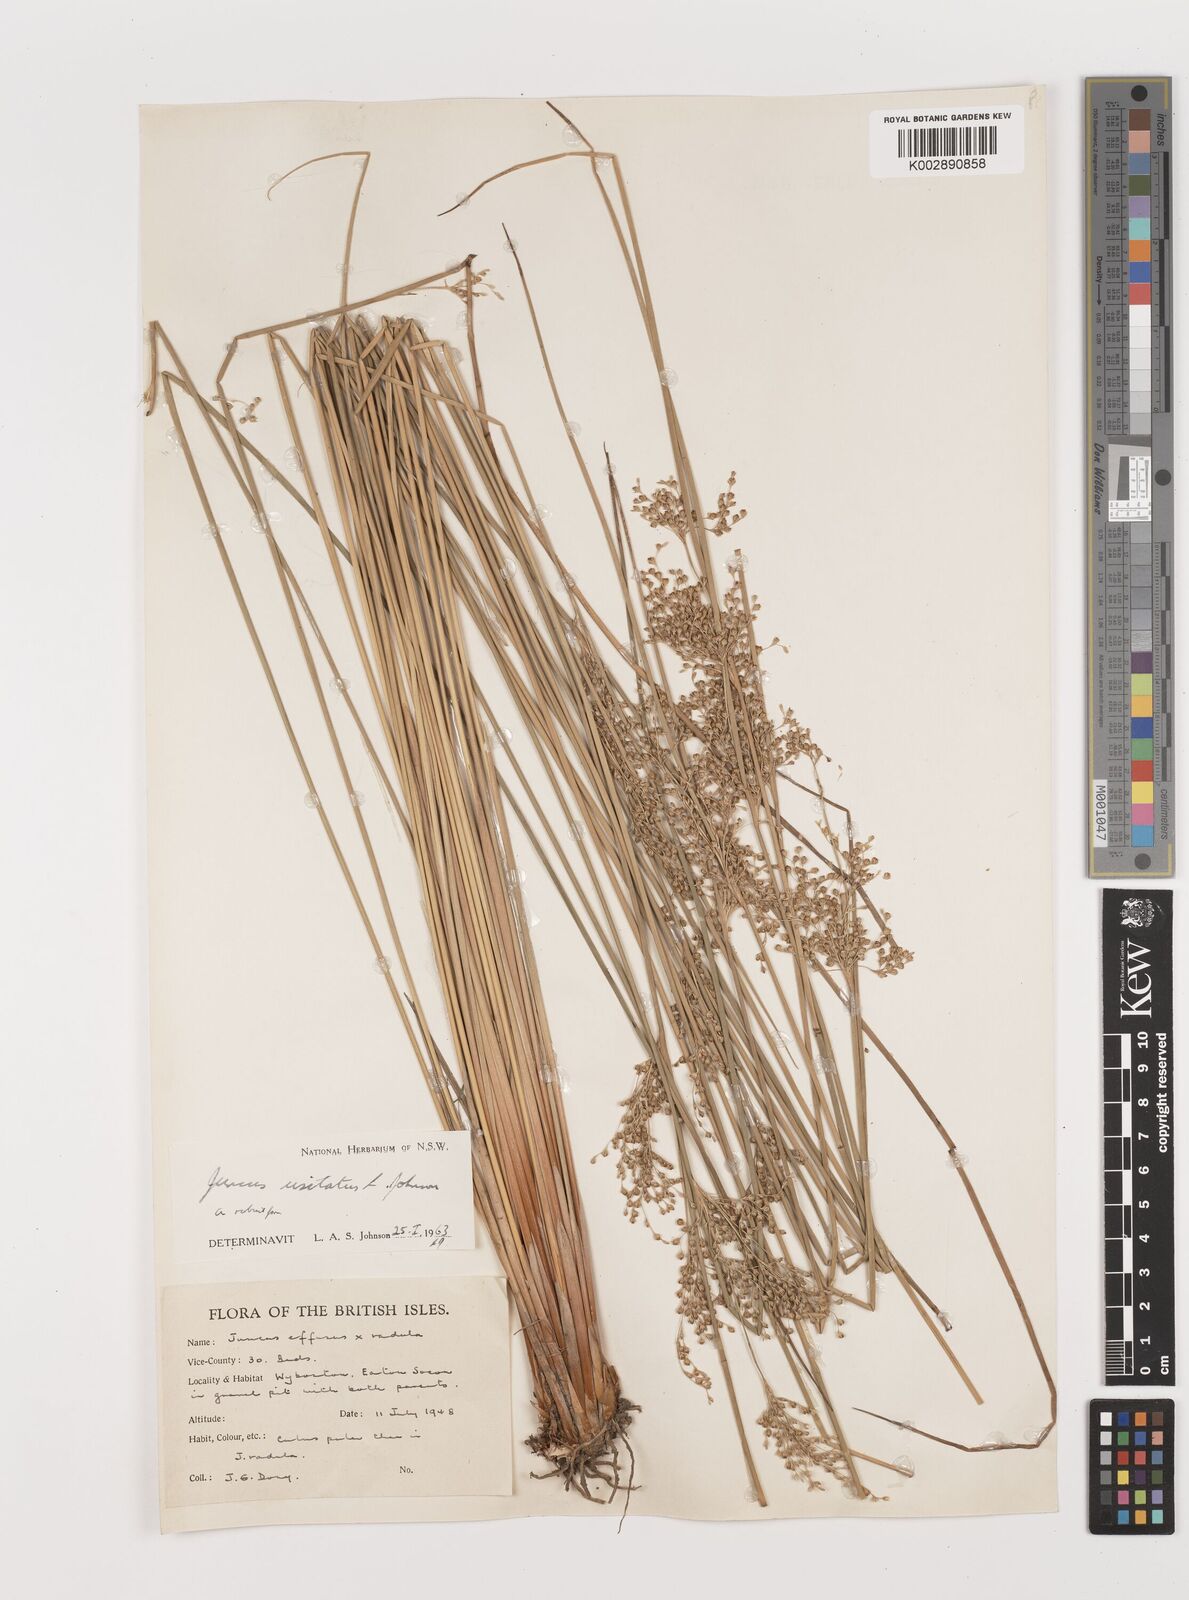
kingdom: Plantae
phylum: Tracheophyta
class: Liliopsida
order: Poales
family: Juncaceae
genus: Juncus
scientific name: Juncus usitatus
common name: Rush
